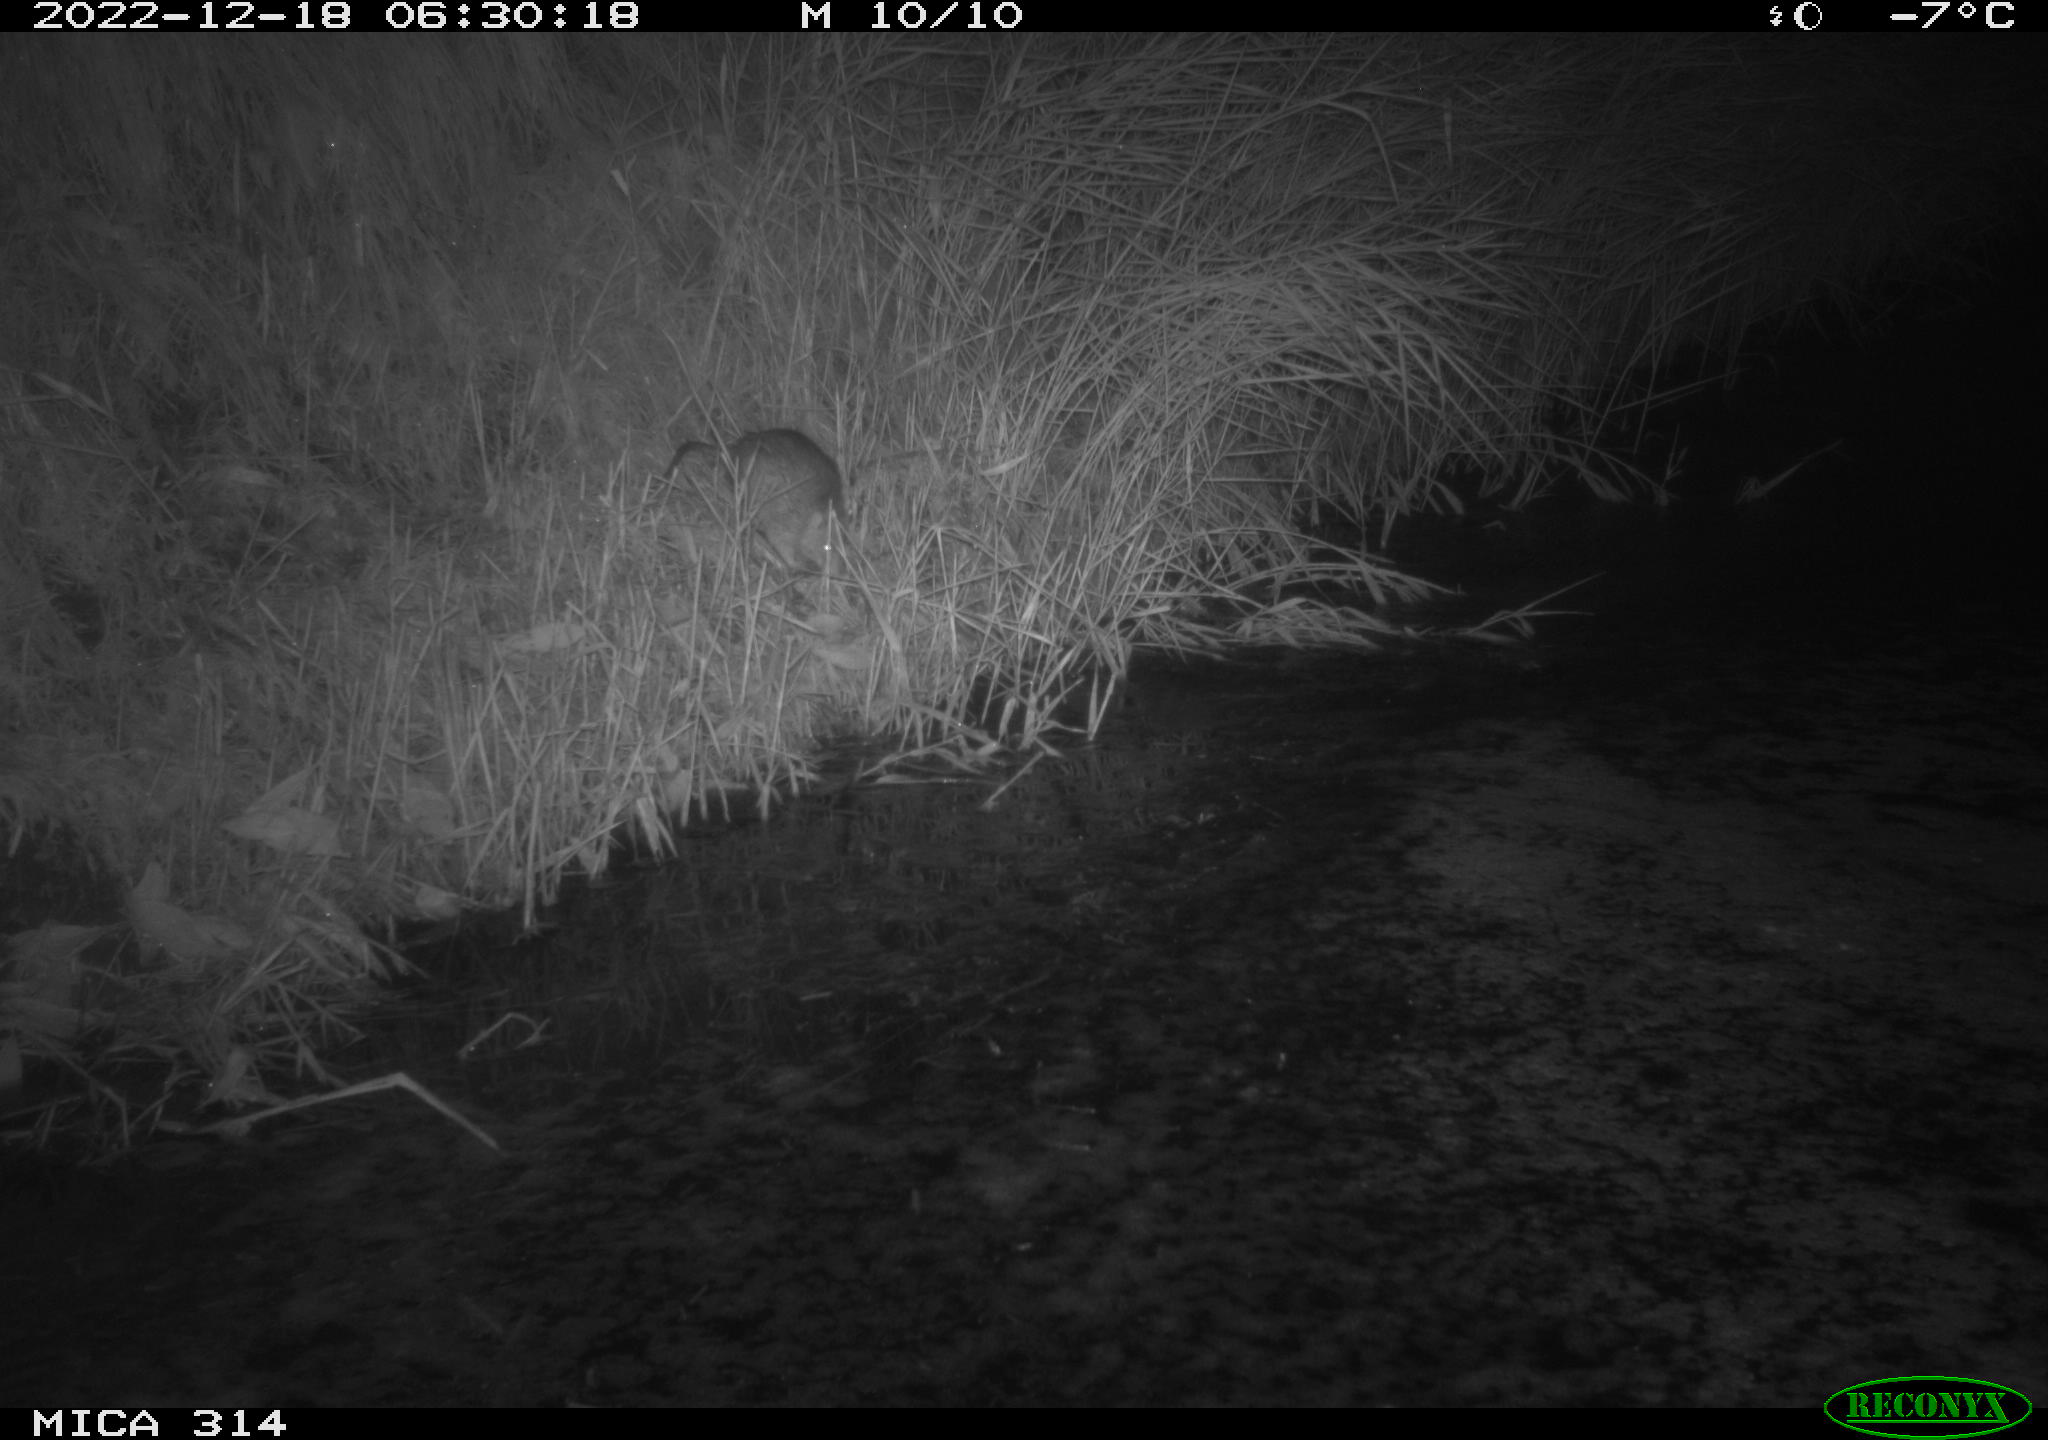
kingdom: Animalia
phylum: Chordata
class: Mammalia
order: Rodentia
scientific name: Rodentia
